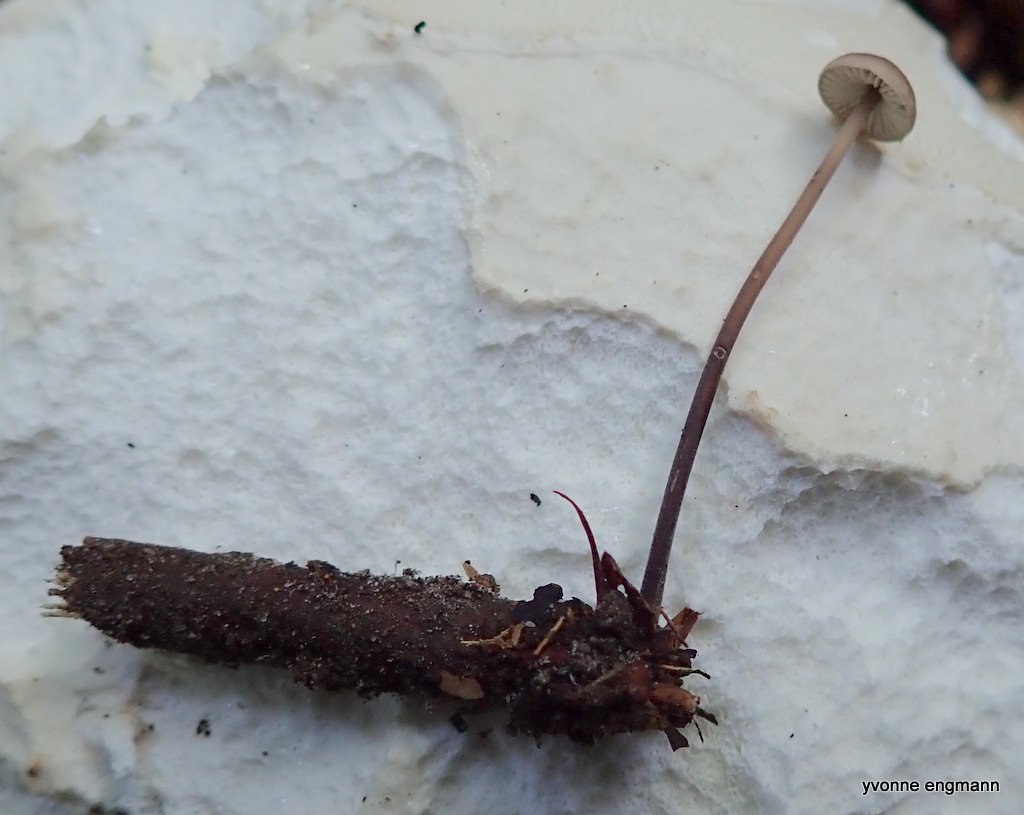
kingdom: Fungi
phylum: Basidiomycota
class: Agaricomycetes
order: Agaricales
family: Omphalotaceae
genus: Mycetinis
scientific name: Mycetinis alliaceus
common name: stor løghat
